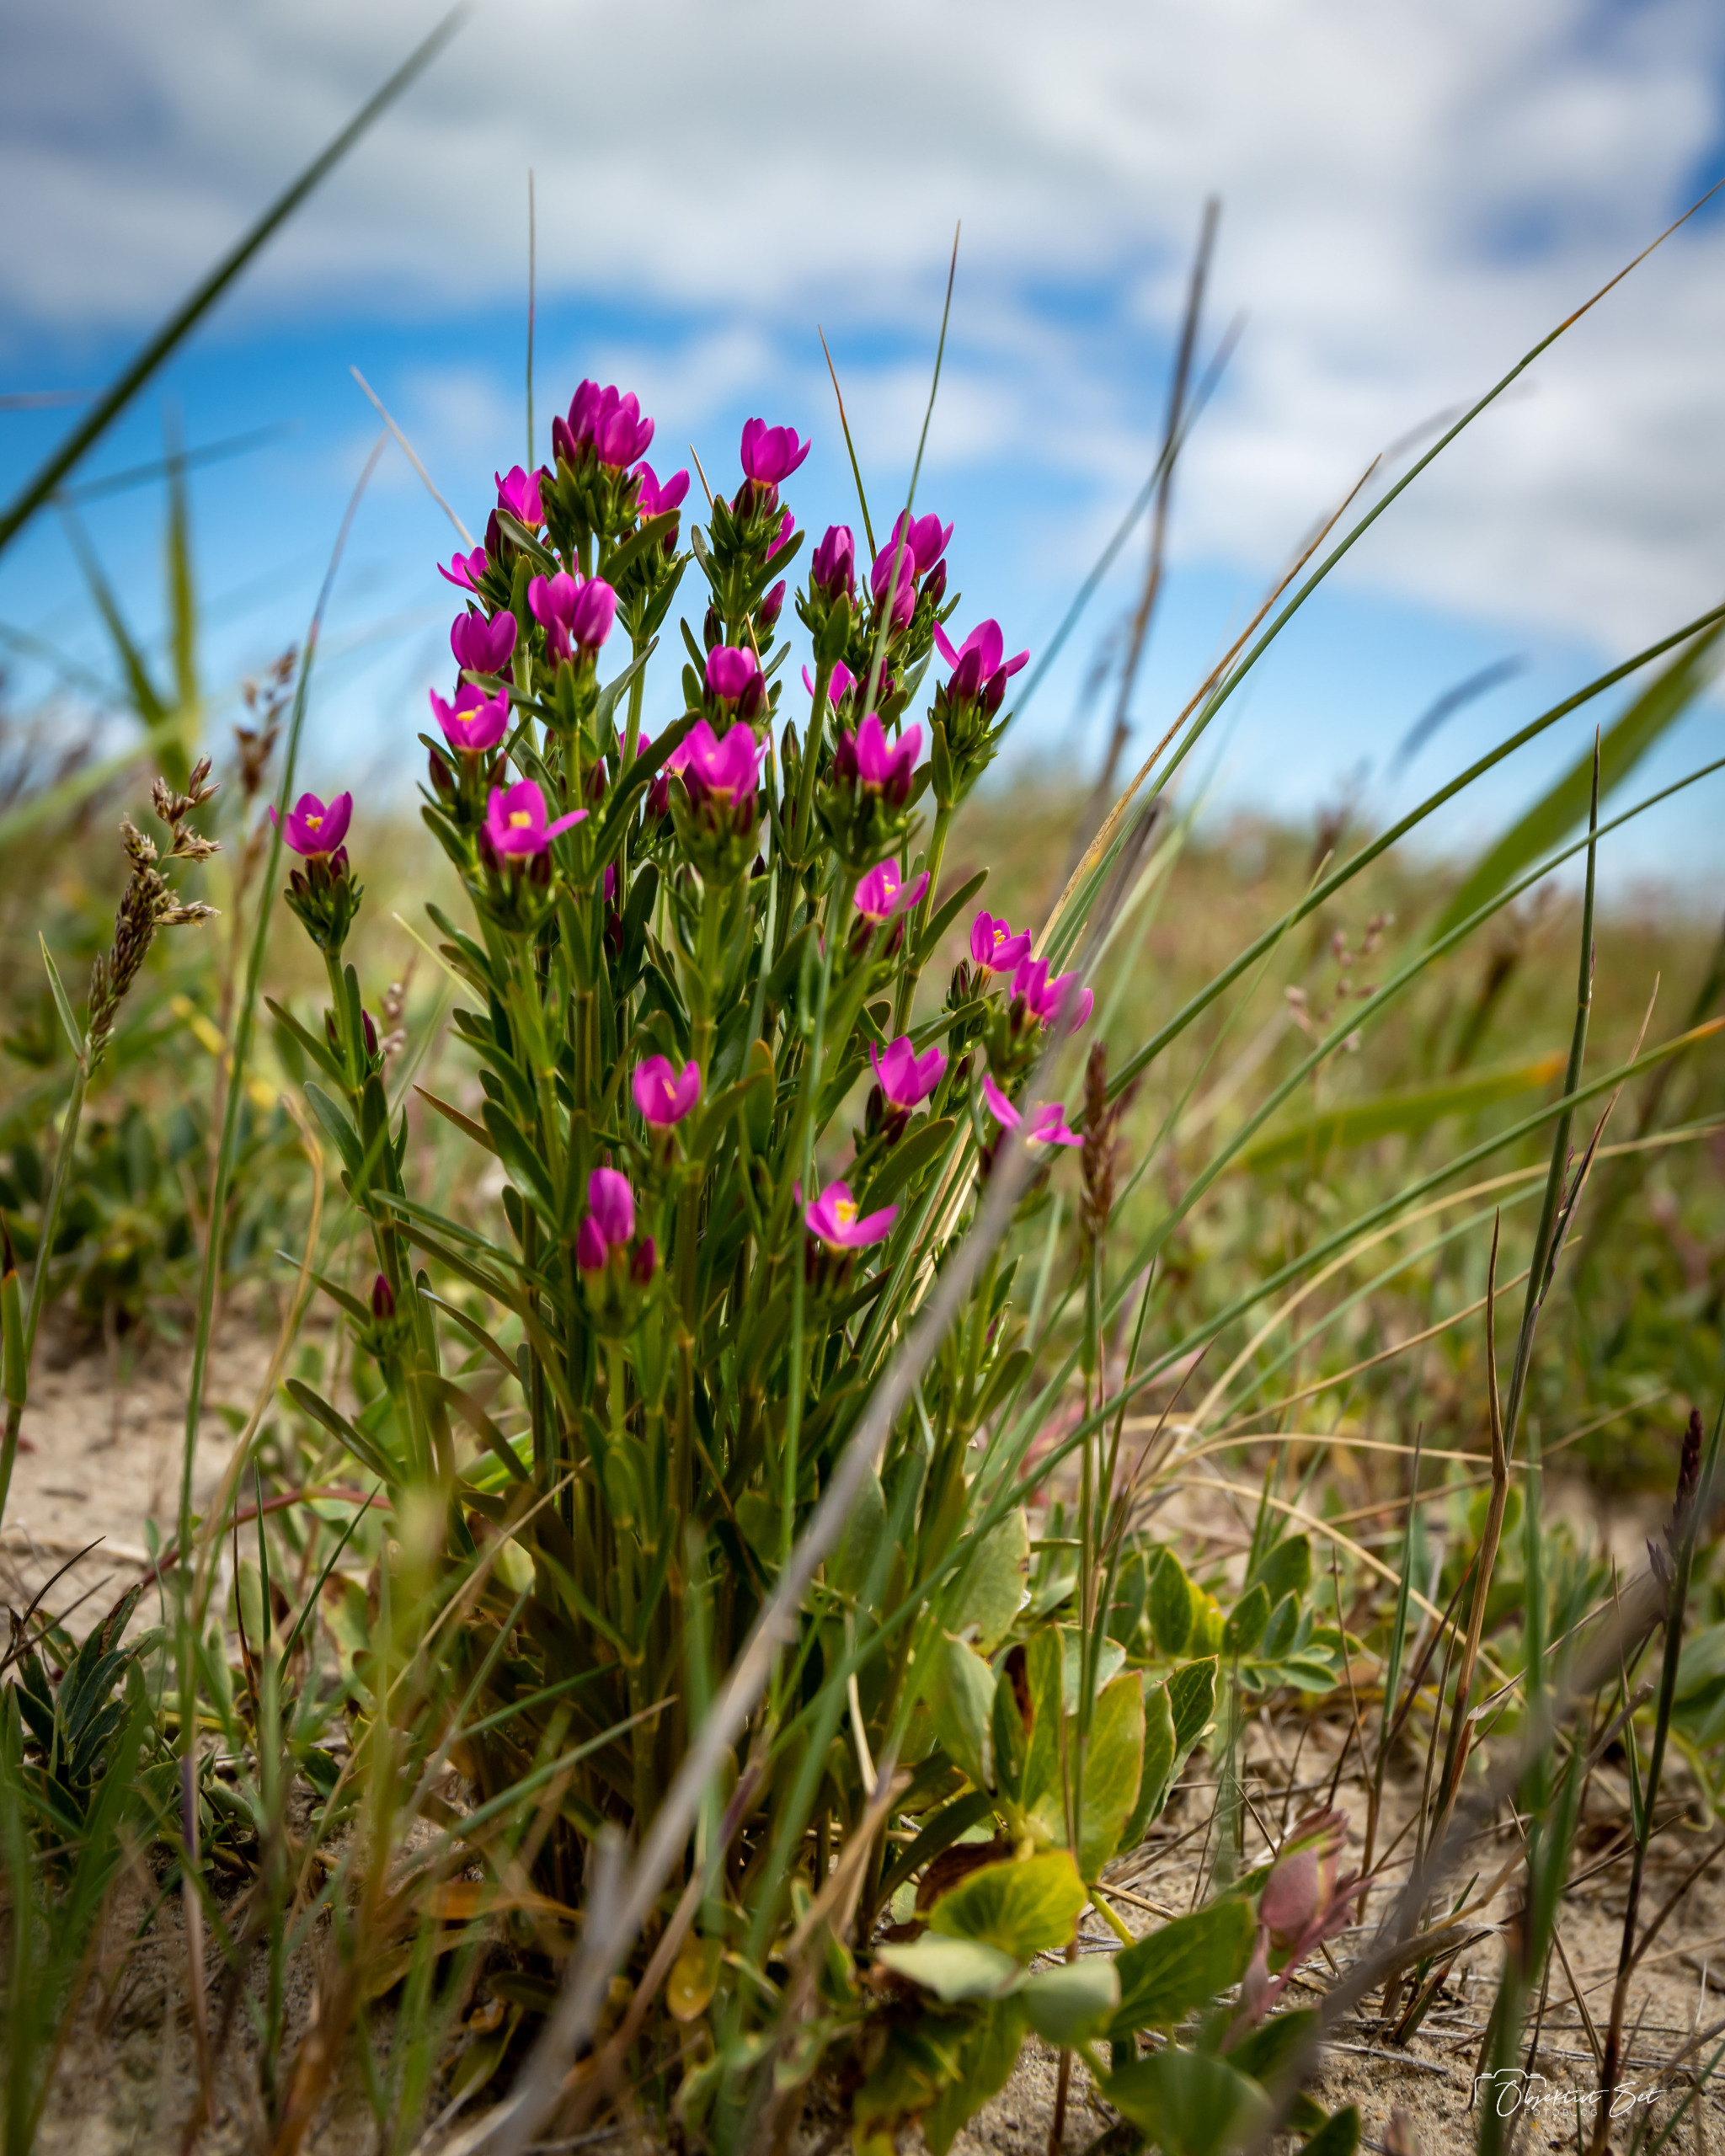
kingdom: Plantae
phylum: Tracheophyta
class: Magnoliopsida
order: Gentianales
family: Gentianaceae
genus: Centaurium
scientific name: Centaurium littorale
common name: Strand-tusindgylden
